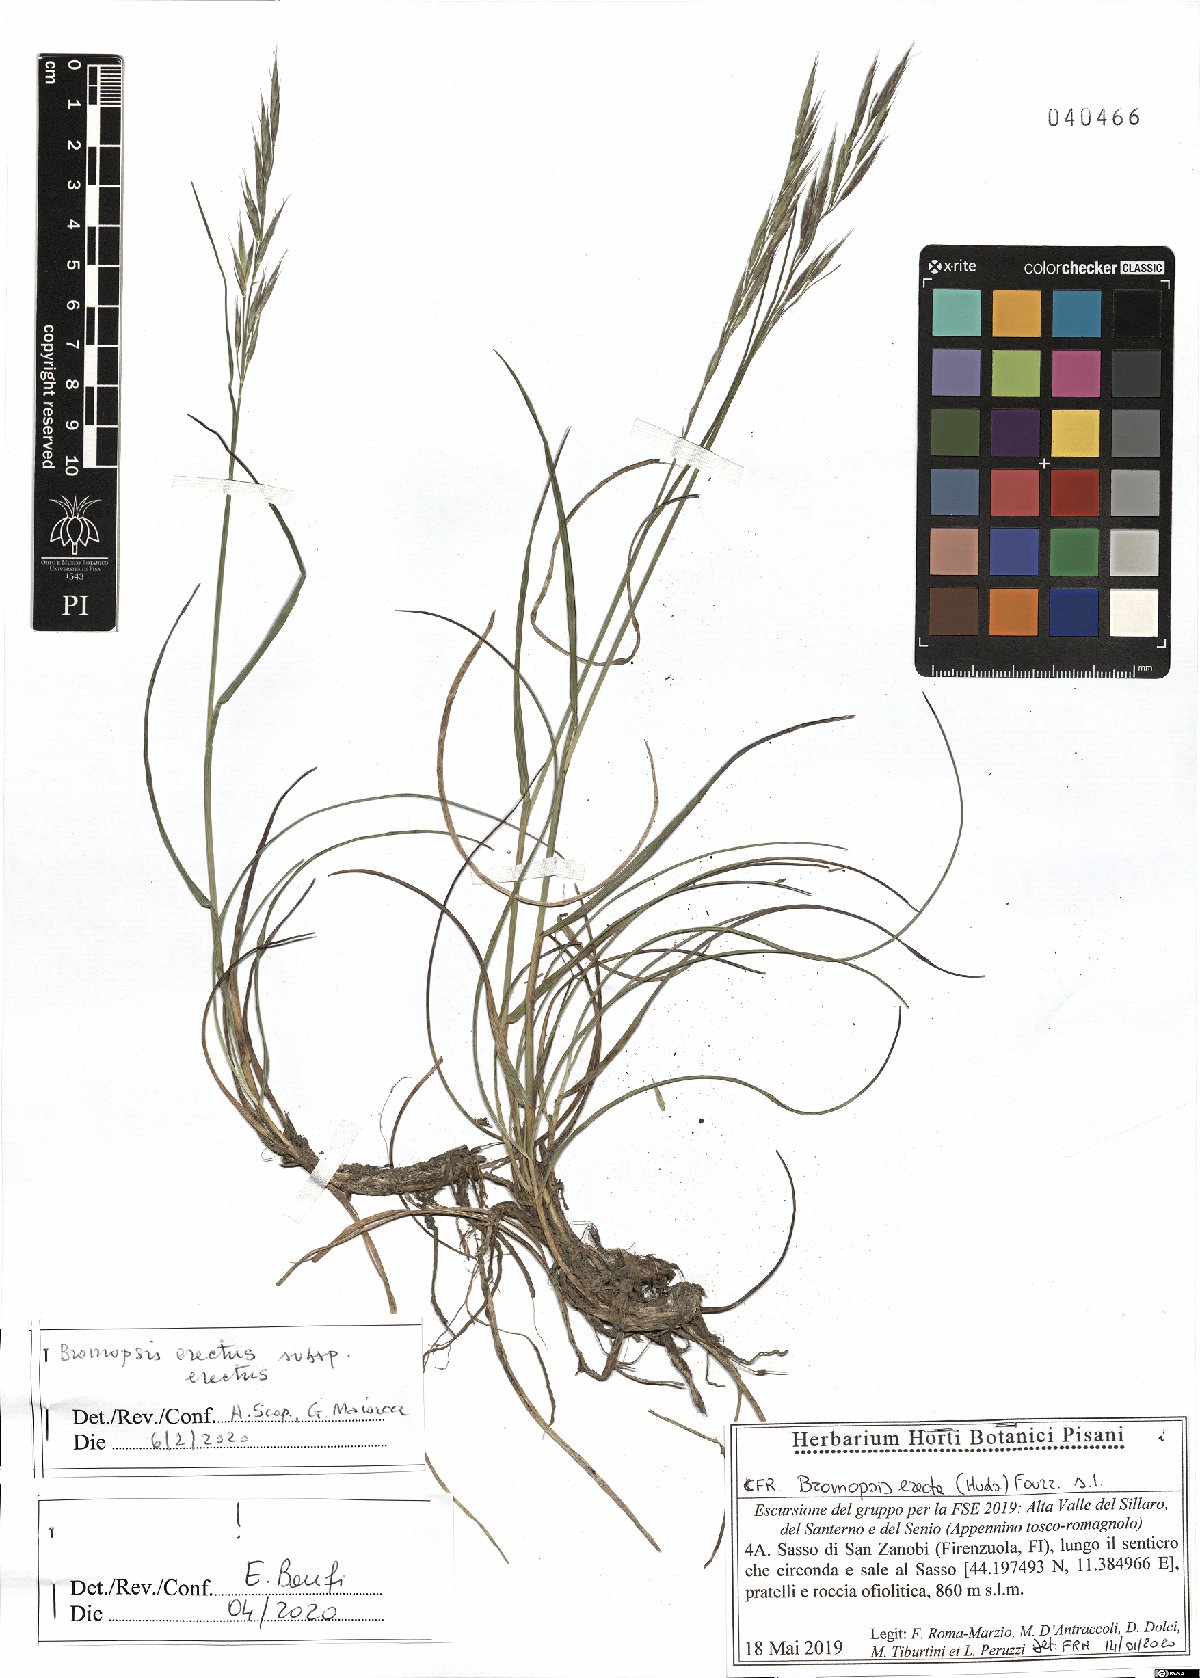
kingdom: Plantae
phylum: Tracheophyta
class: Liliopsida
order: Poales
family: Poaceae
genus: Bromus
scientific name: Bromus erectus
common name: Erect brome
